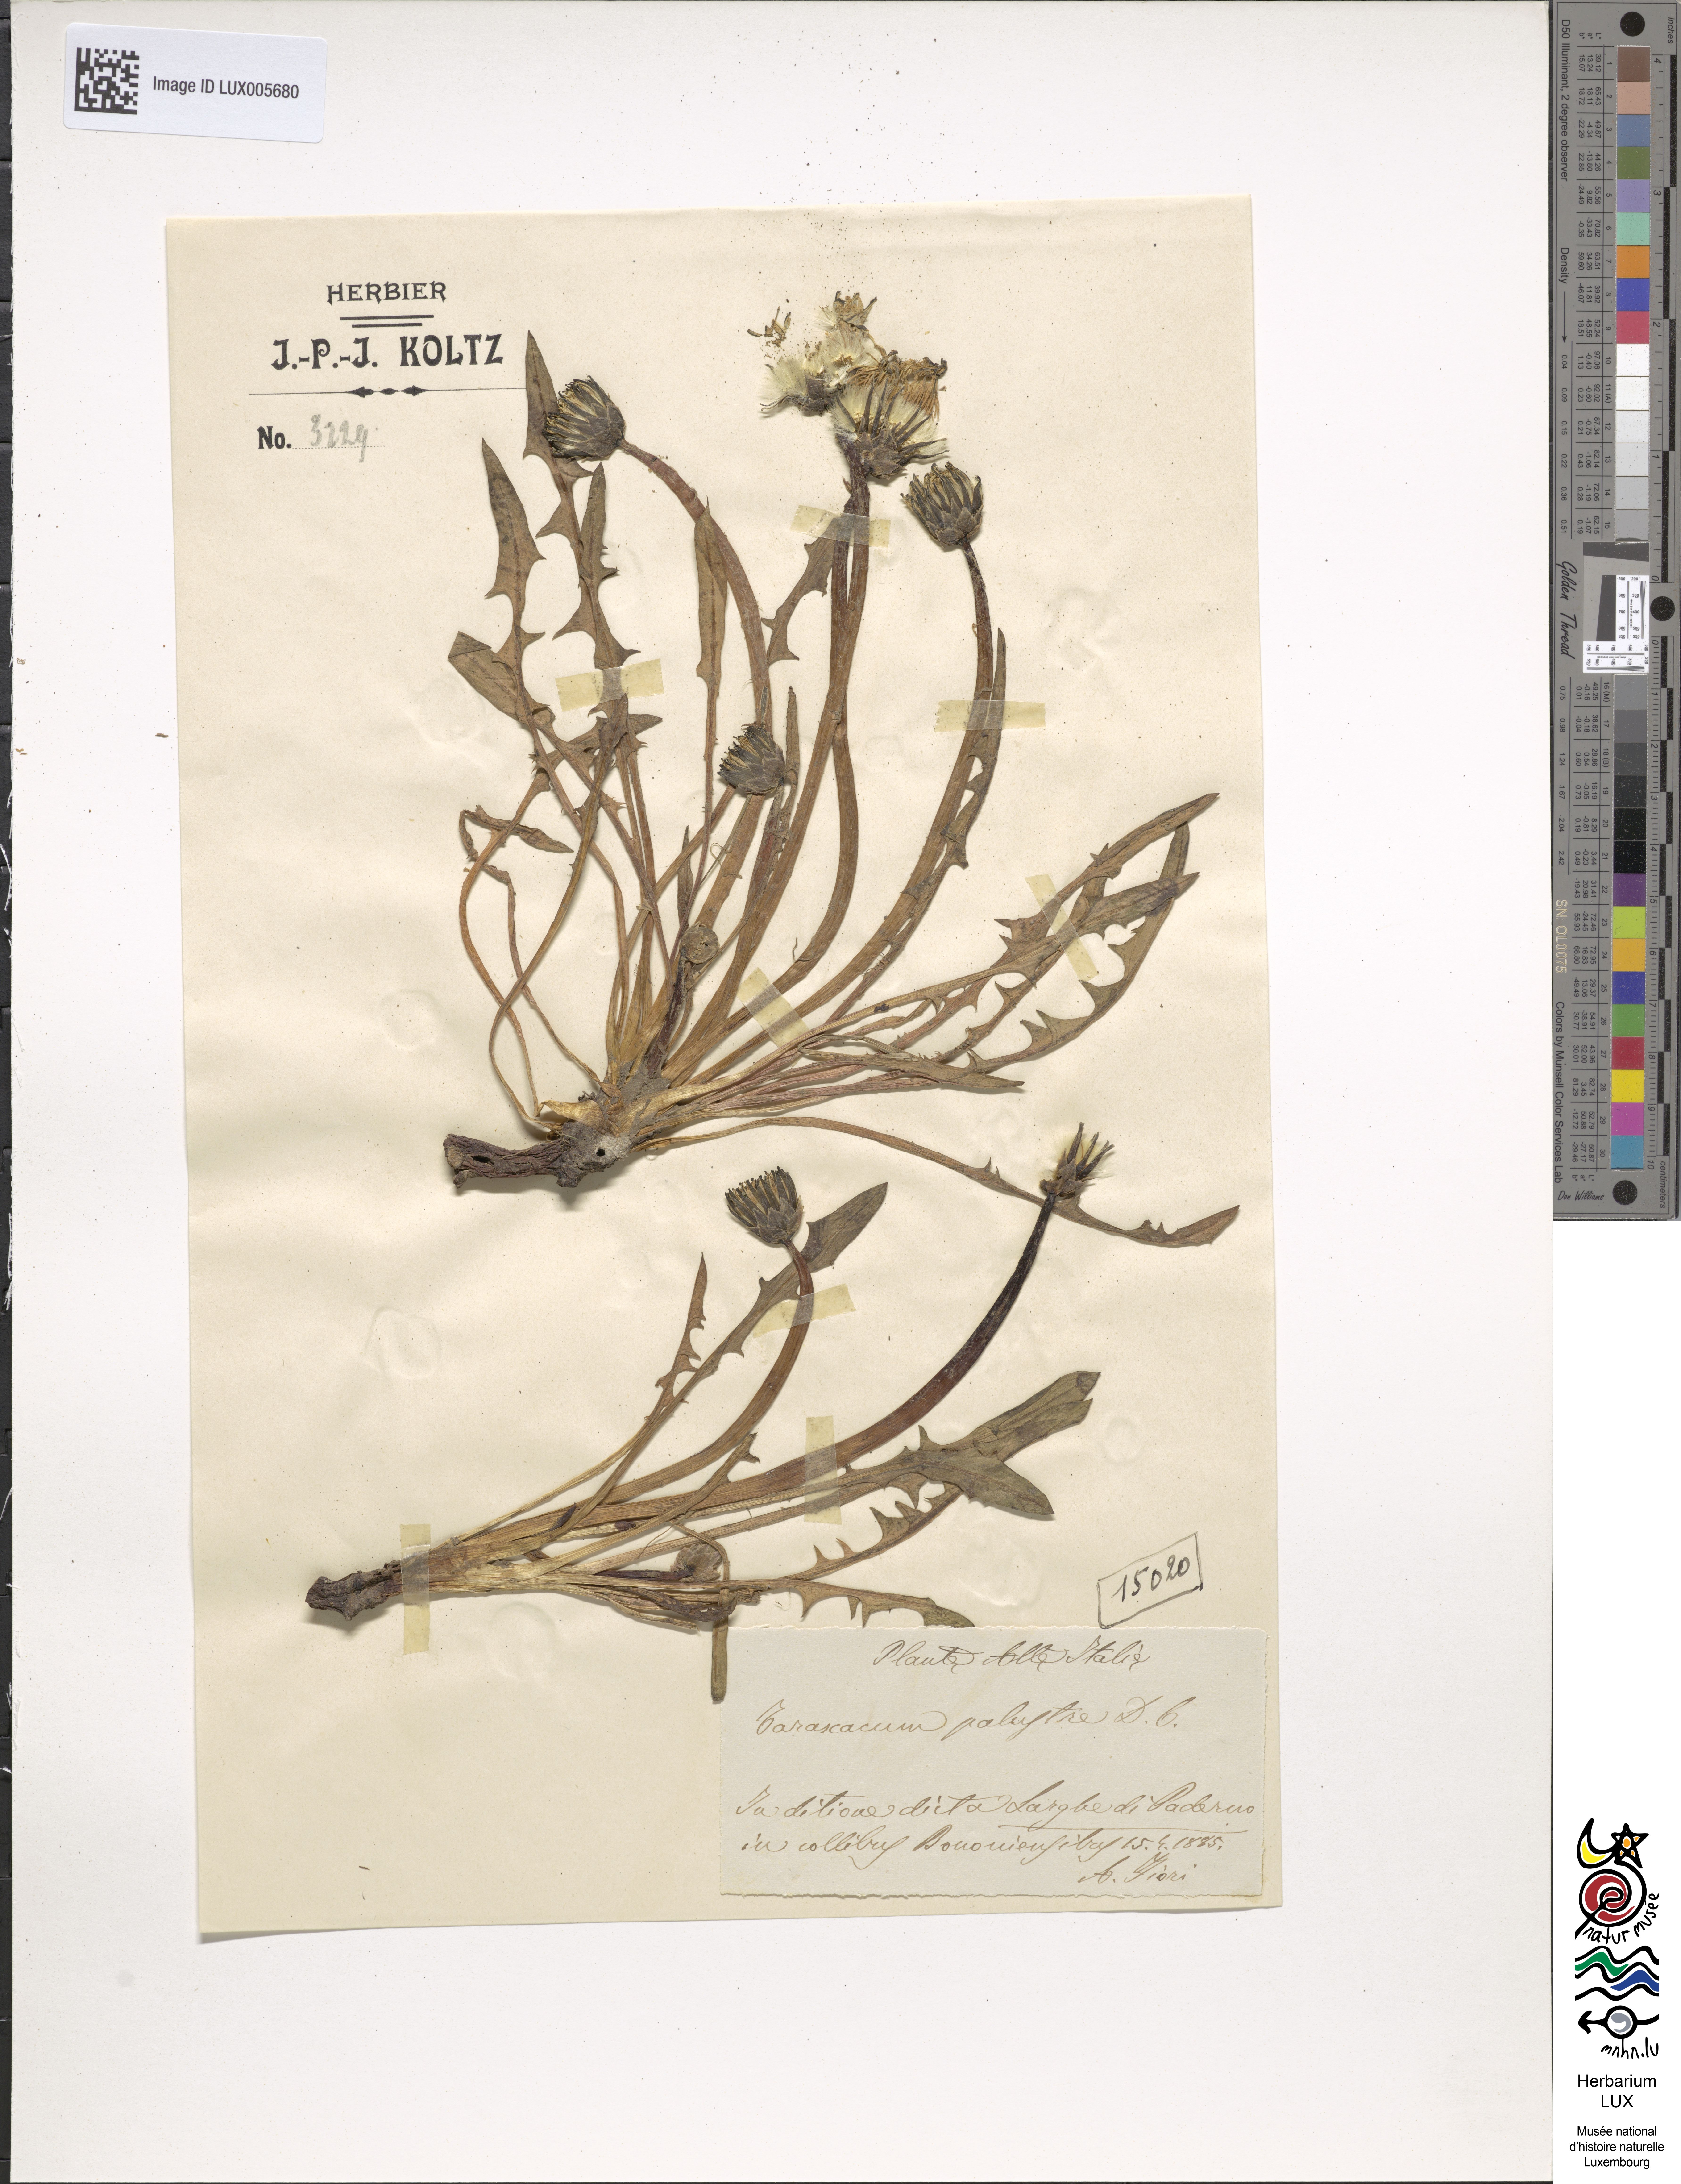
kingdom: Plantae
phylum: Tracheophyta
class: Magnoliopsida
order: Asterales
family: Asteraceae
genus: Taraxacum
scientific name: Taraxacum palustre
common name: Marsh dandelion
